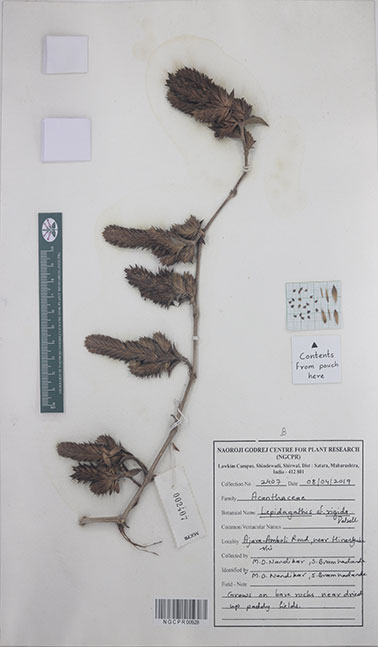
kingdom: Plantae
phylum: Tracheophyta
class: Magnoliopsida
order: Lamiales
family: Acanthaceae
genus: Lepidagathis
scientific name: Lepidagathis rigida
